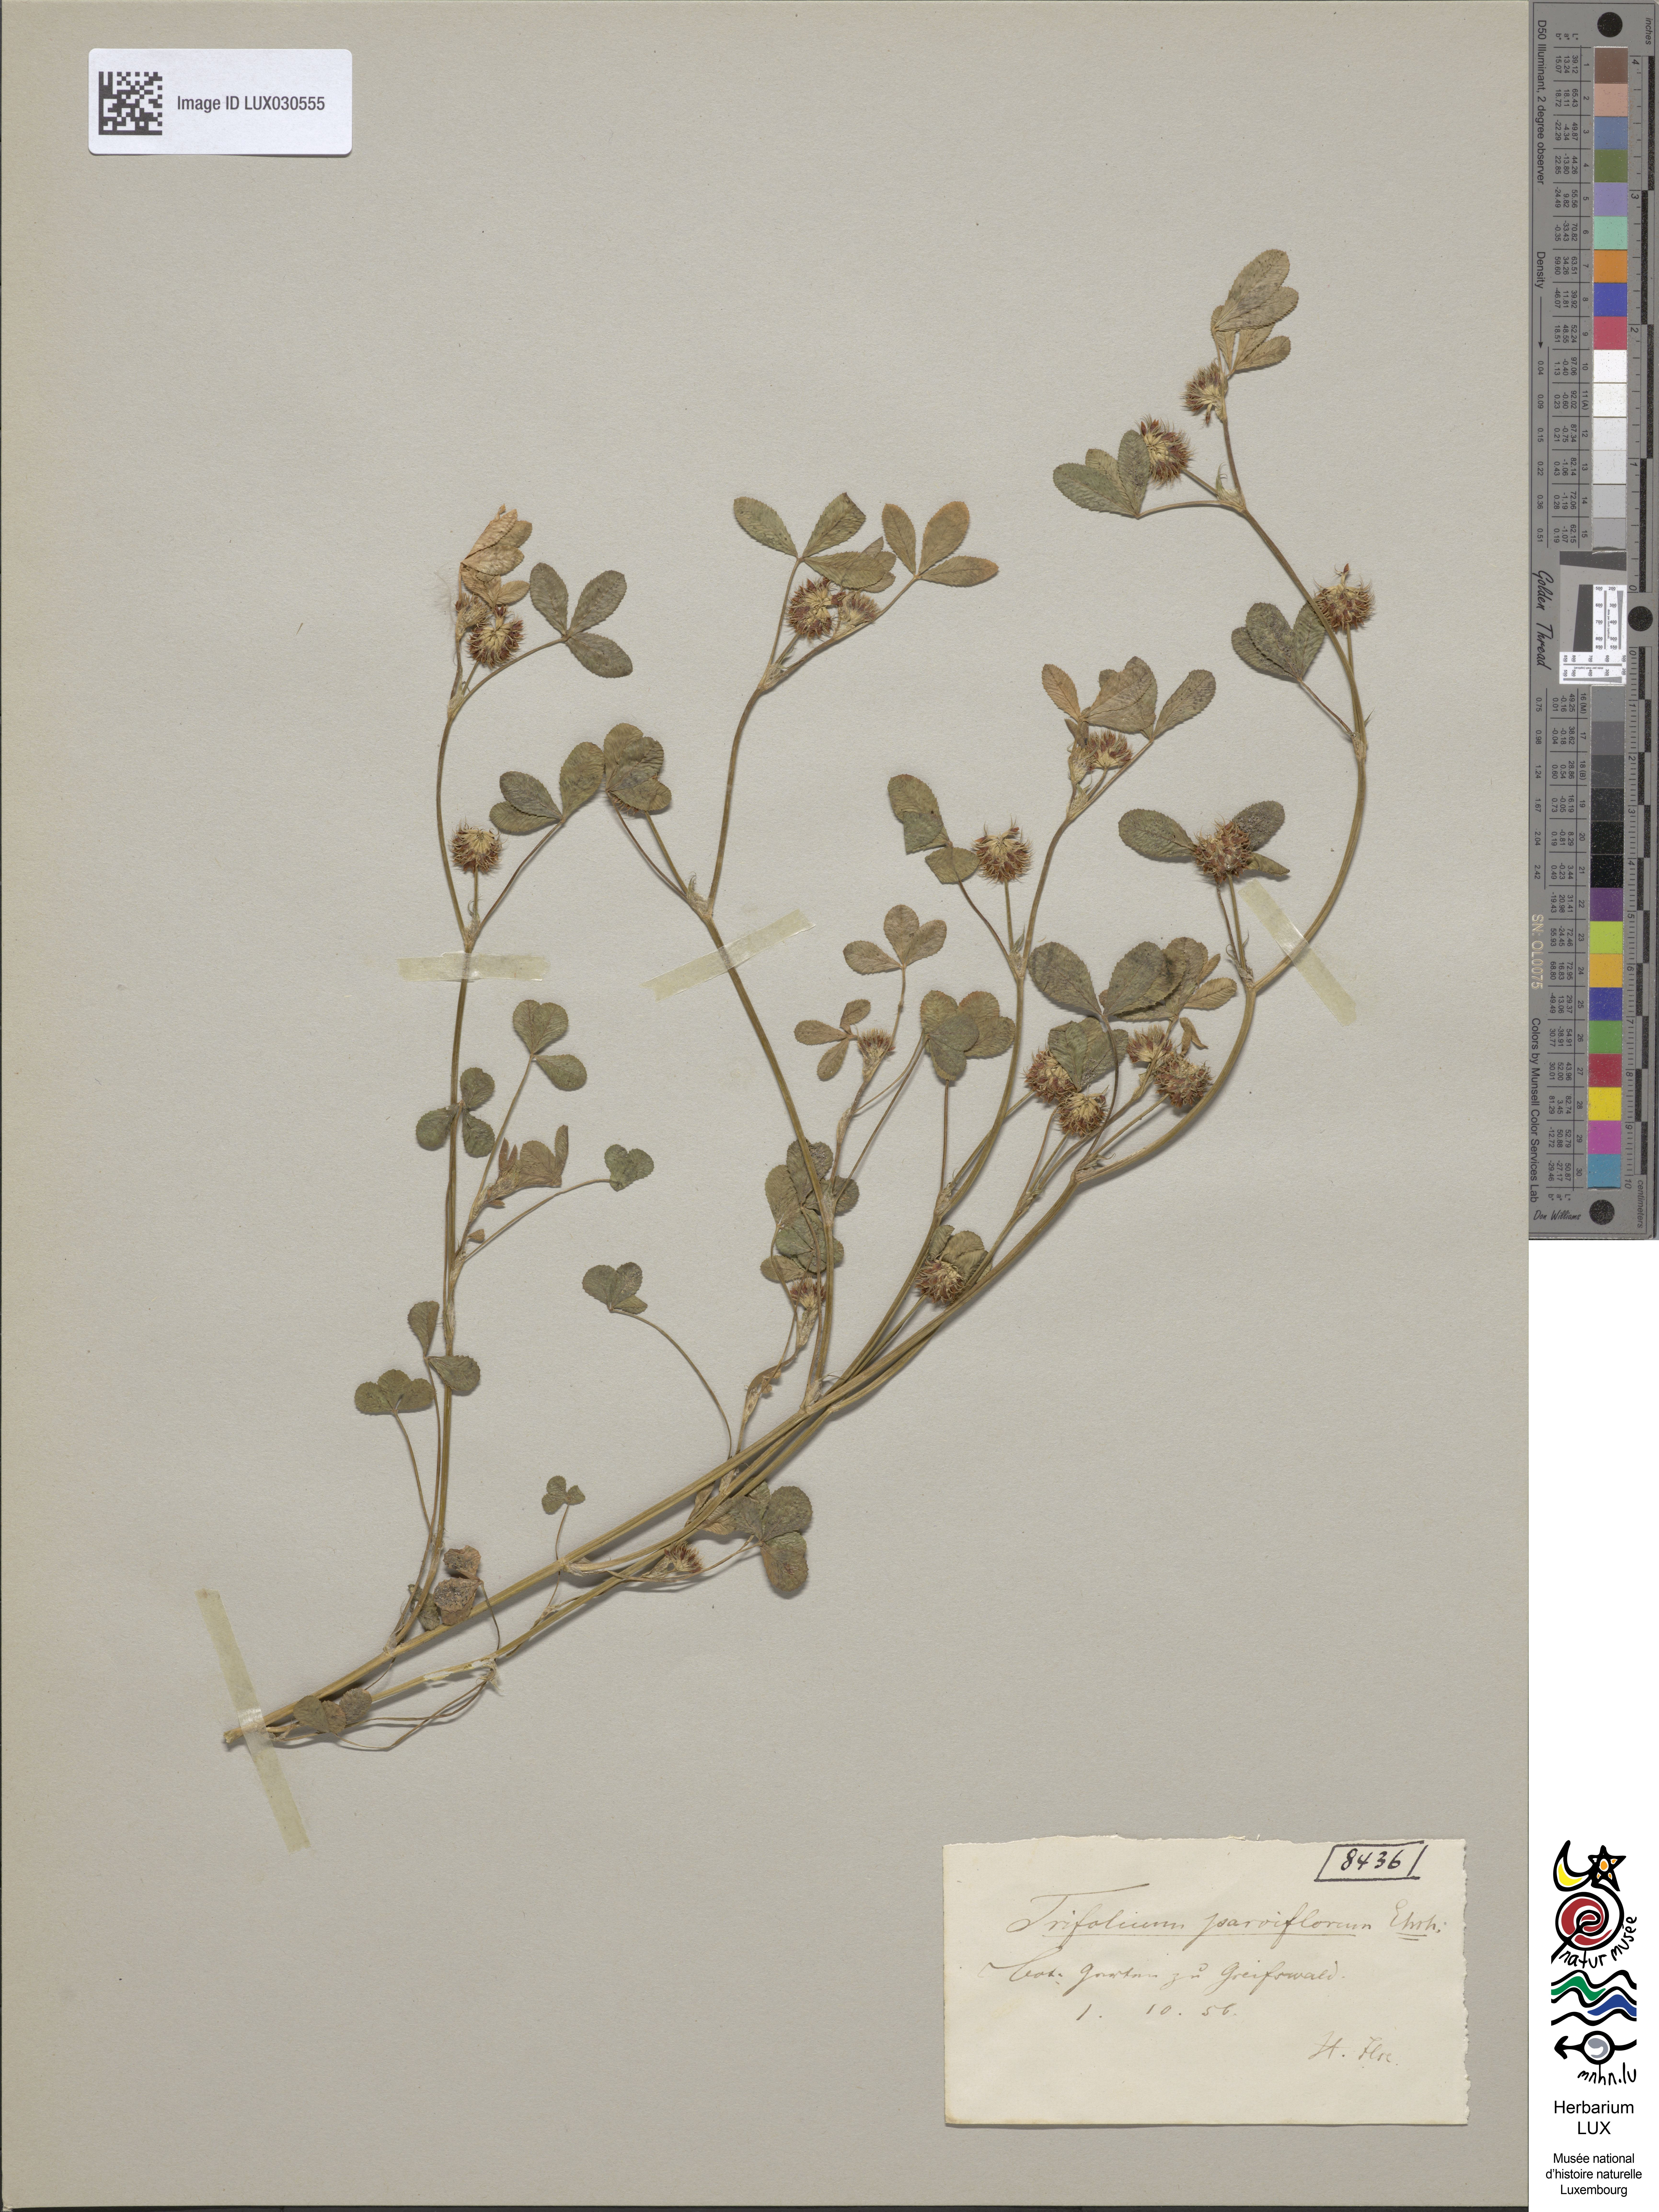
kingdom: Plantae
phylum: Tracheophyta
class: Magnoliopsida
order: Fabales
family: Fabaceae
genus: Trifolium
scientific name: Trifolium retusum
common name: Teasel clover
